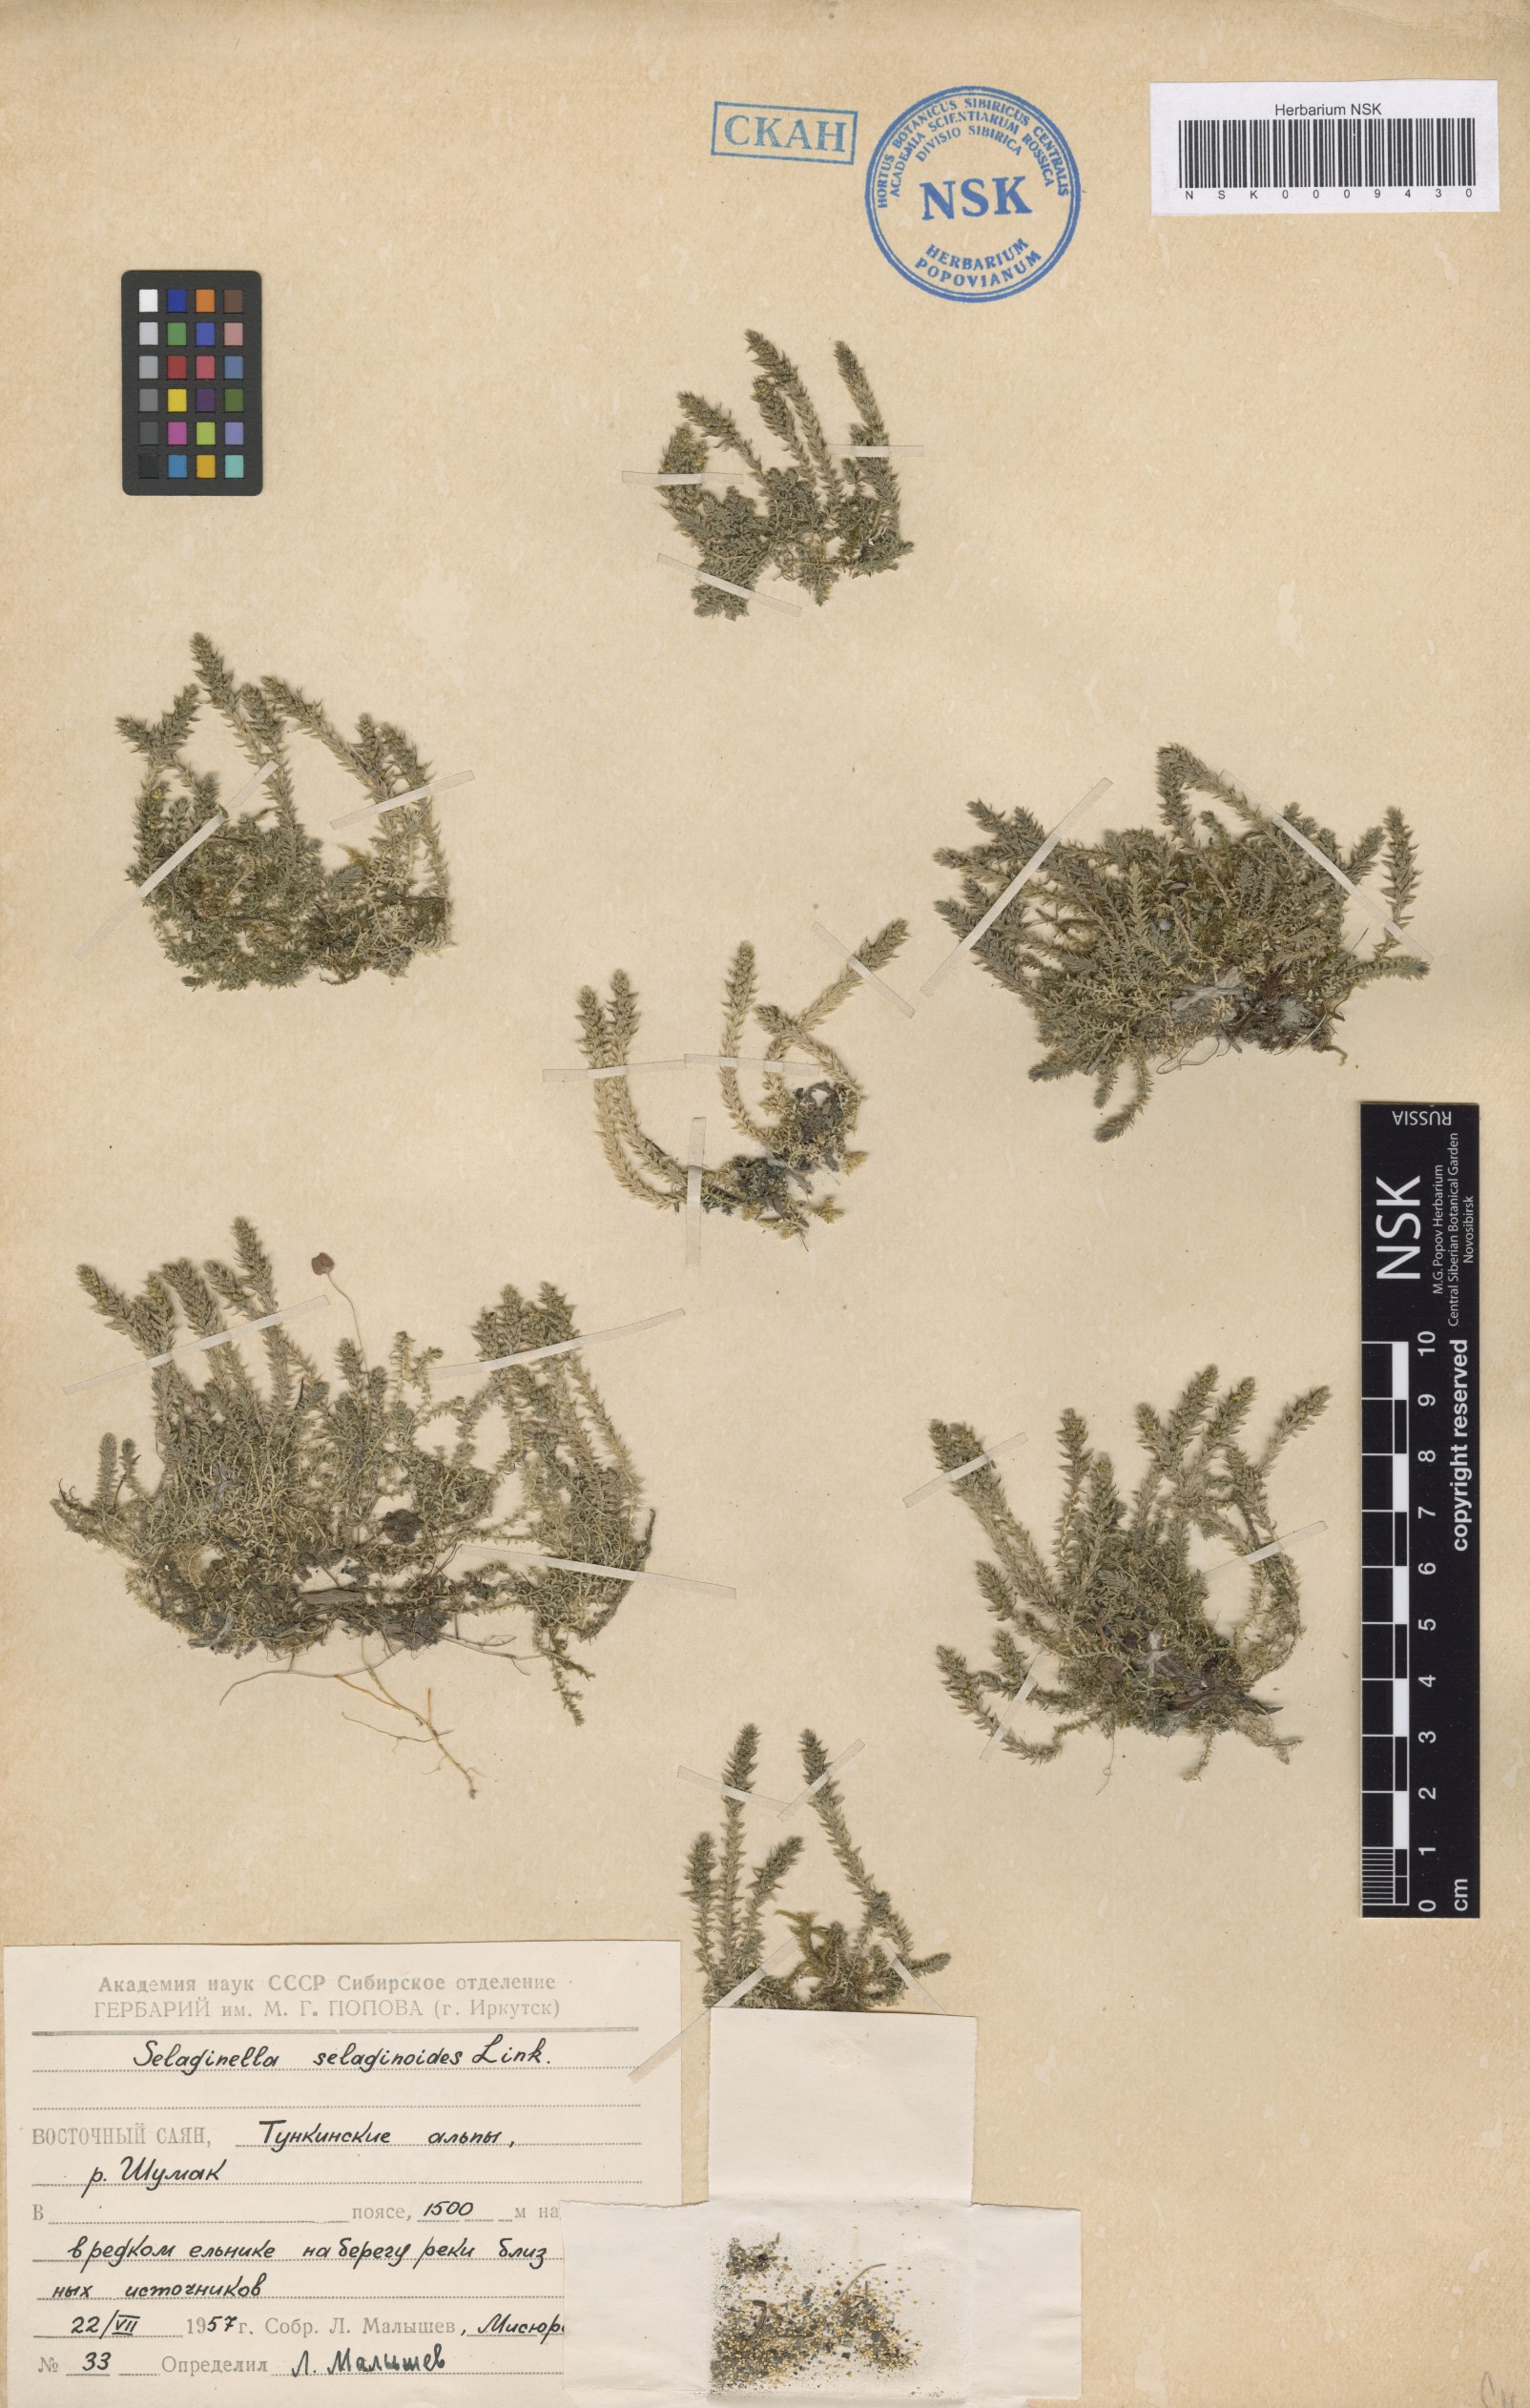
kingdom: Plantae
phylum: Tracheophyta
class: Lycopodiopsida
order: Selaginellales
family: Selaginellaceae
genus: Selaginella
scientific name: Selaginella selaginoides
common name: Prickly mountain-moss
